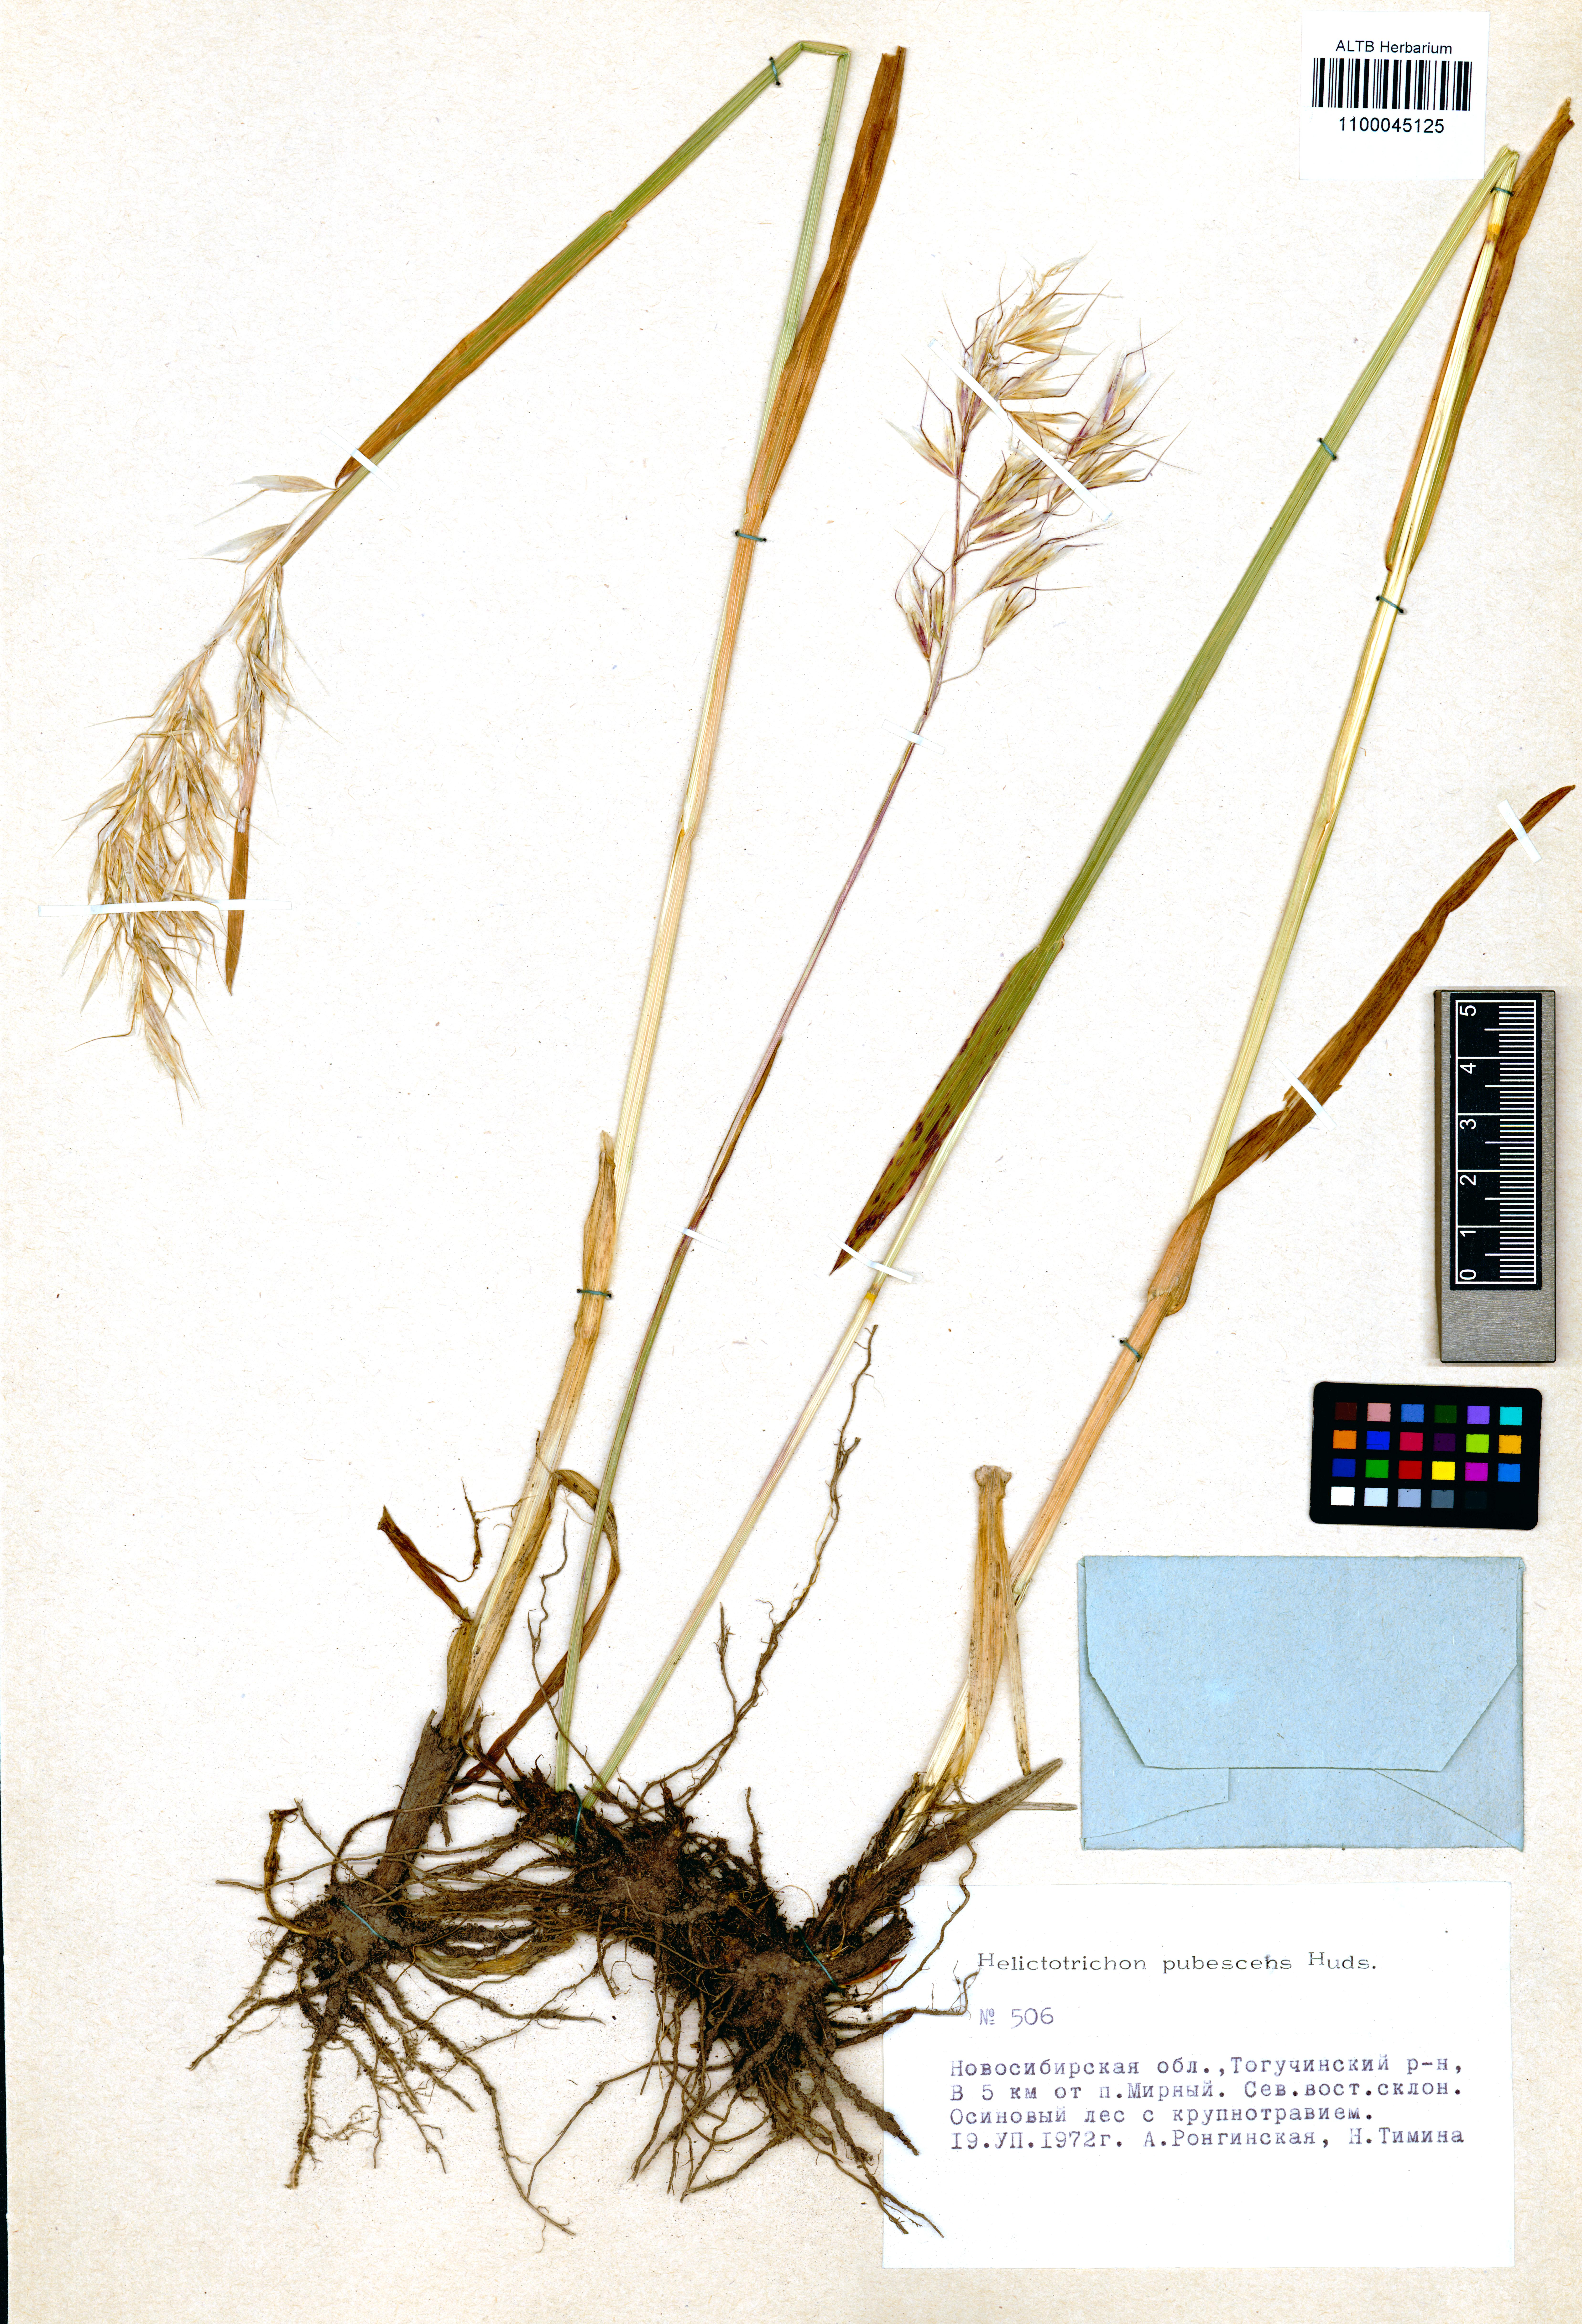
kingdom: Plantae
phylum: Tracheophyta
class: Liliopsida
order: Poales
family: Poaceae
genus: Avenula
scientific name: Avenula pubescens
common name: Downy alpine oatgrass
